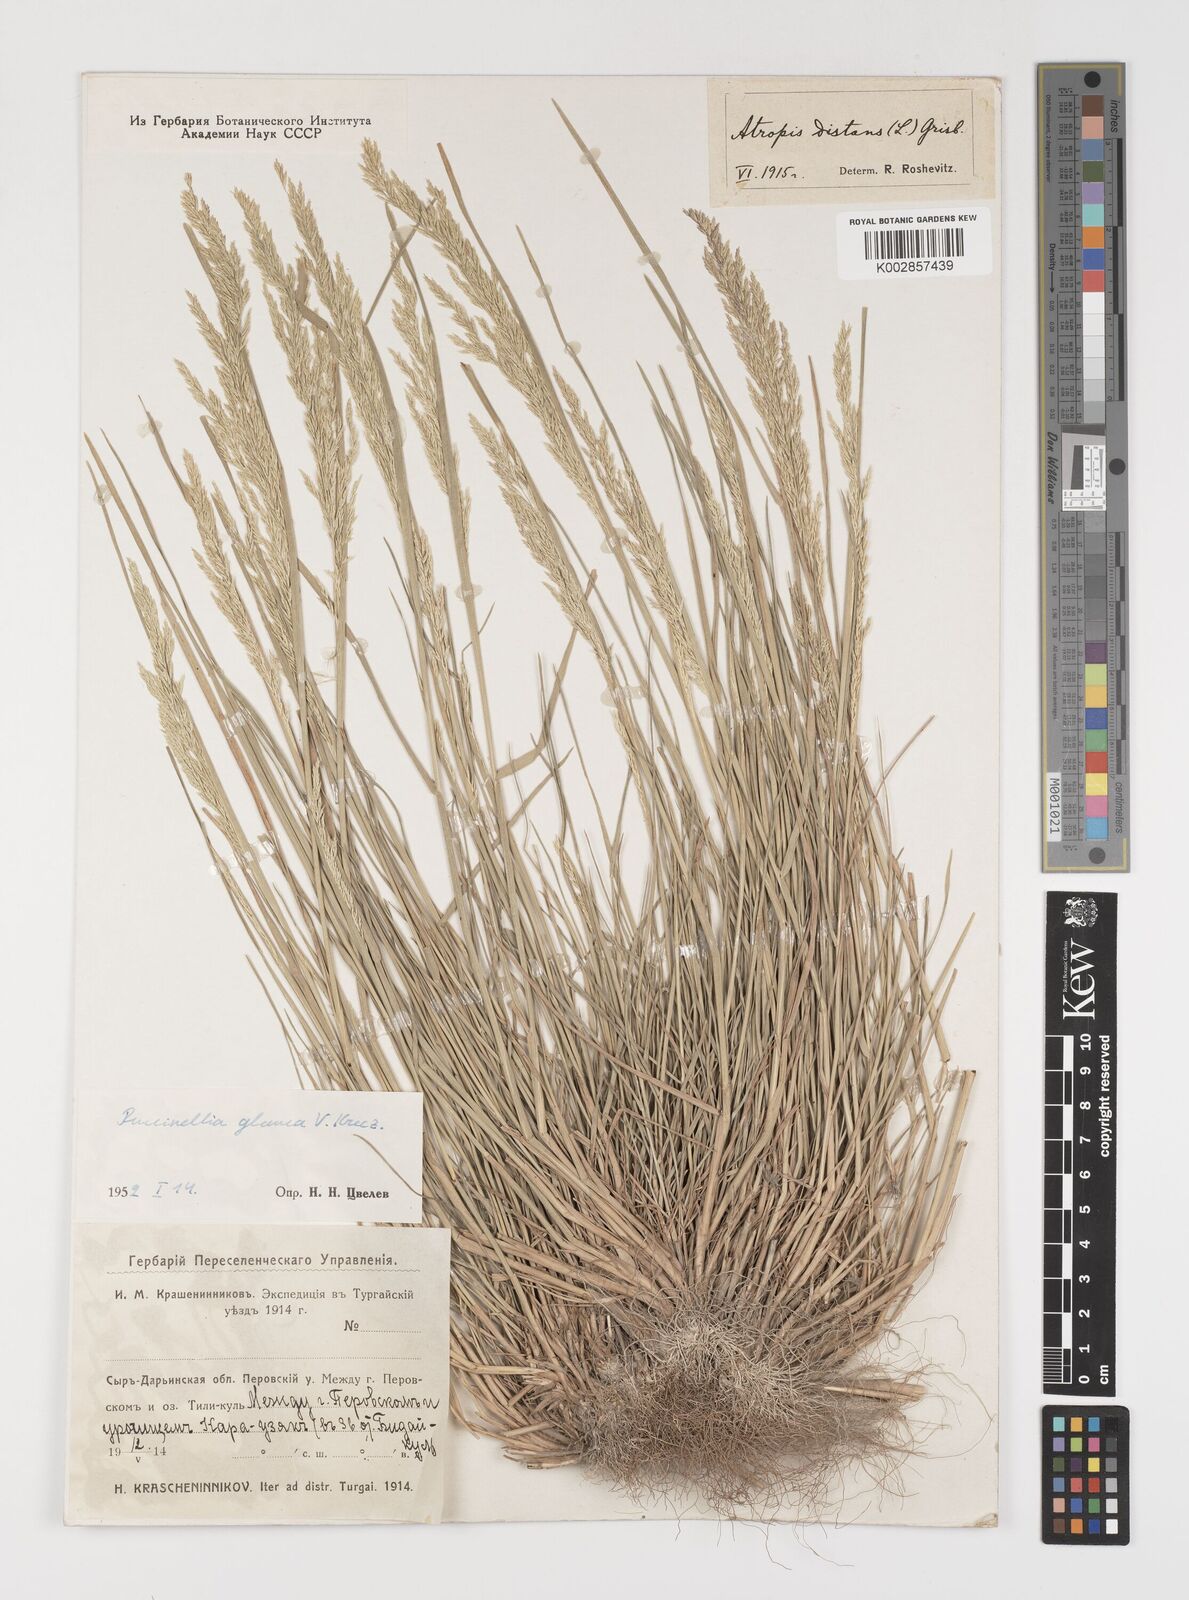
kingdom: Plantae
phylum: Tracheophyta
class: Liliopsida
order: Poales
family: Poaceae
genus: Puccinellia
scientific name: Puccinellia distans
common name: Weeping alkaligrass
